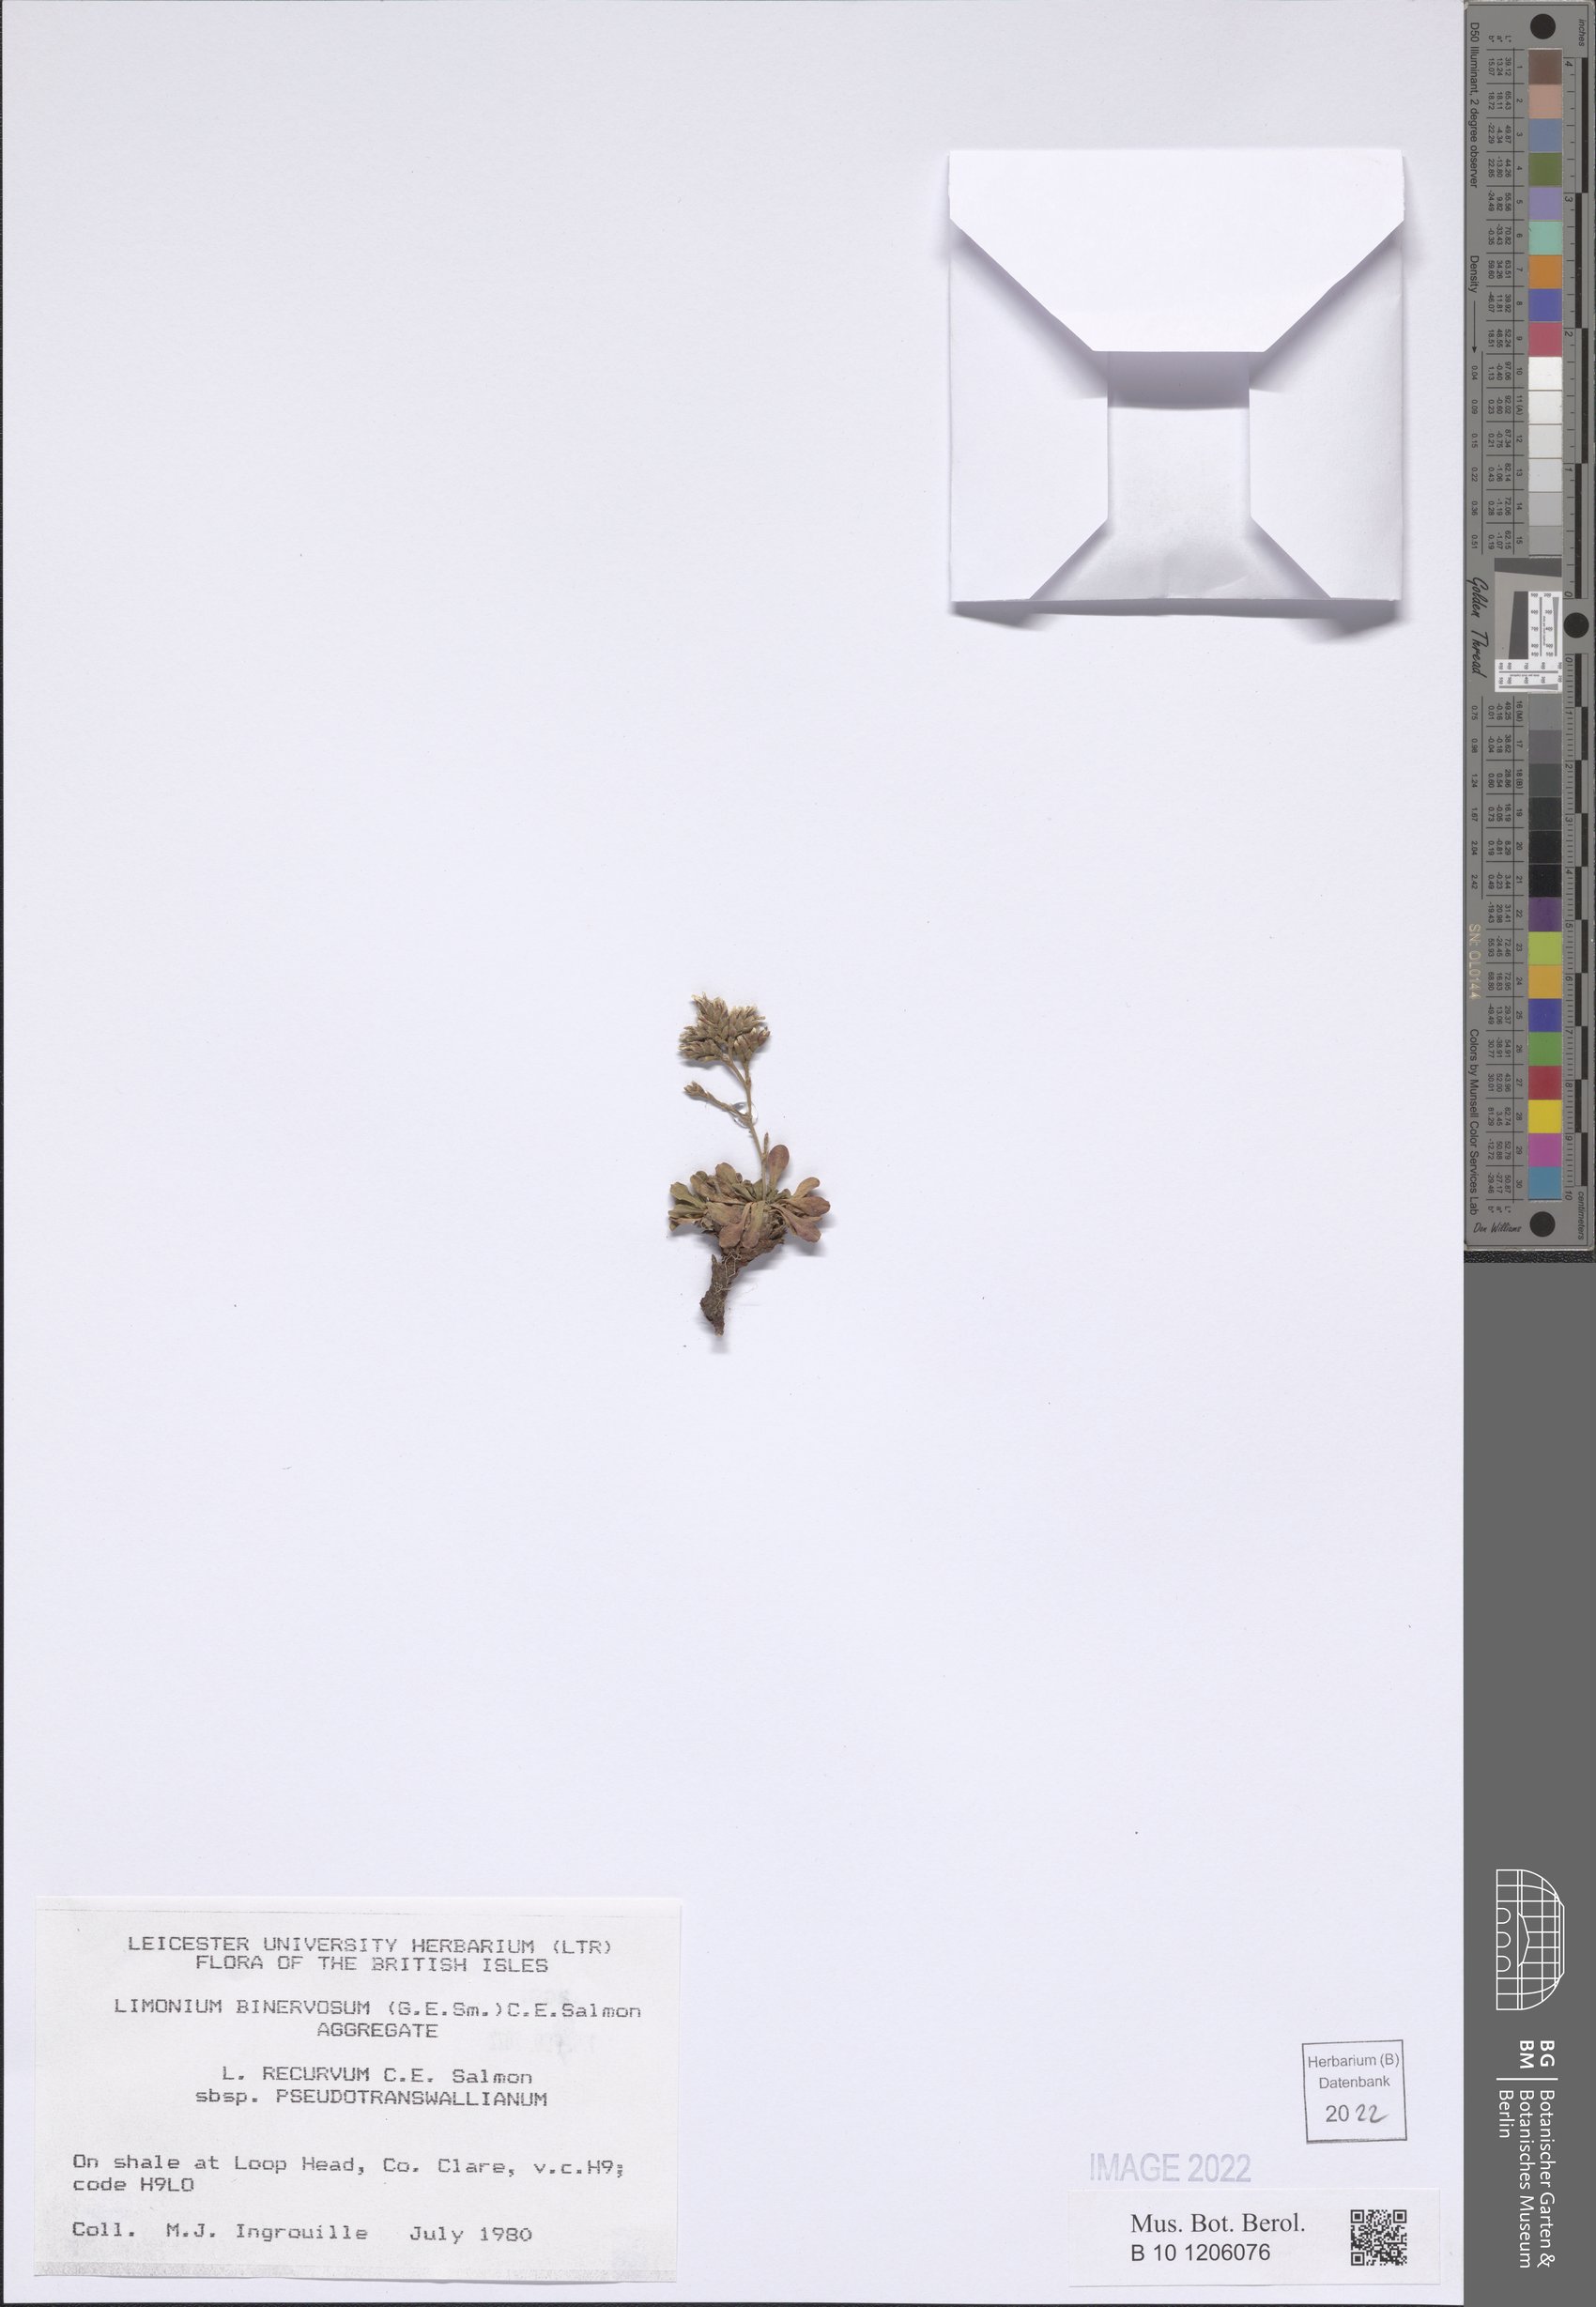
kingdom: Plantae
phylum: Tracheophyta
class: Magnoliopsida
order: Caryophyllales
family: Plumbaginaceae
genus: Limonium
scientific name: Limonium recurvum
